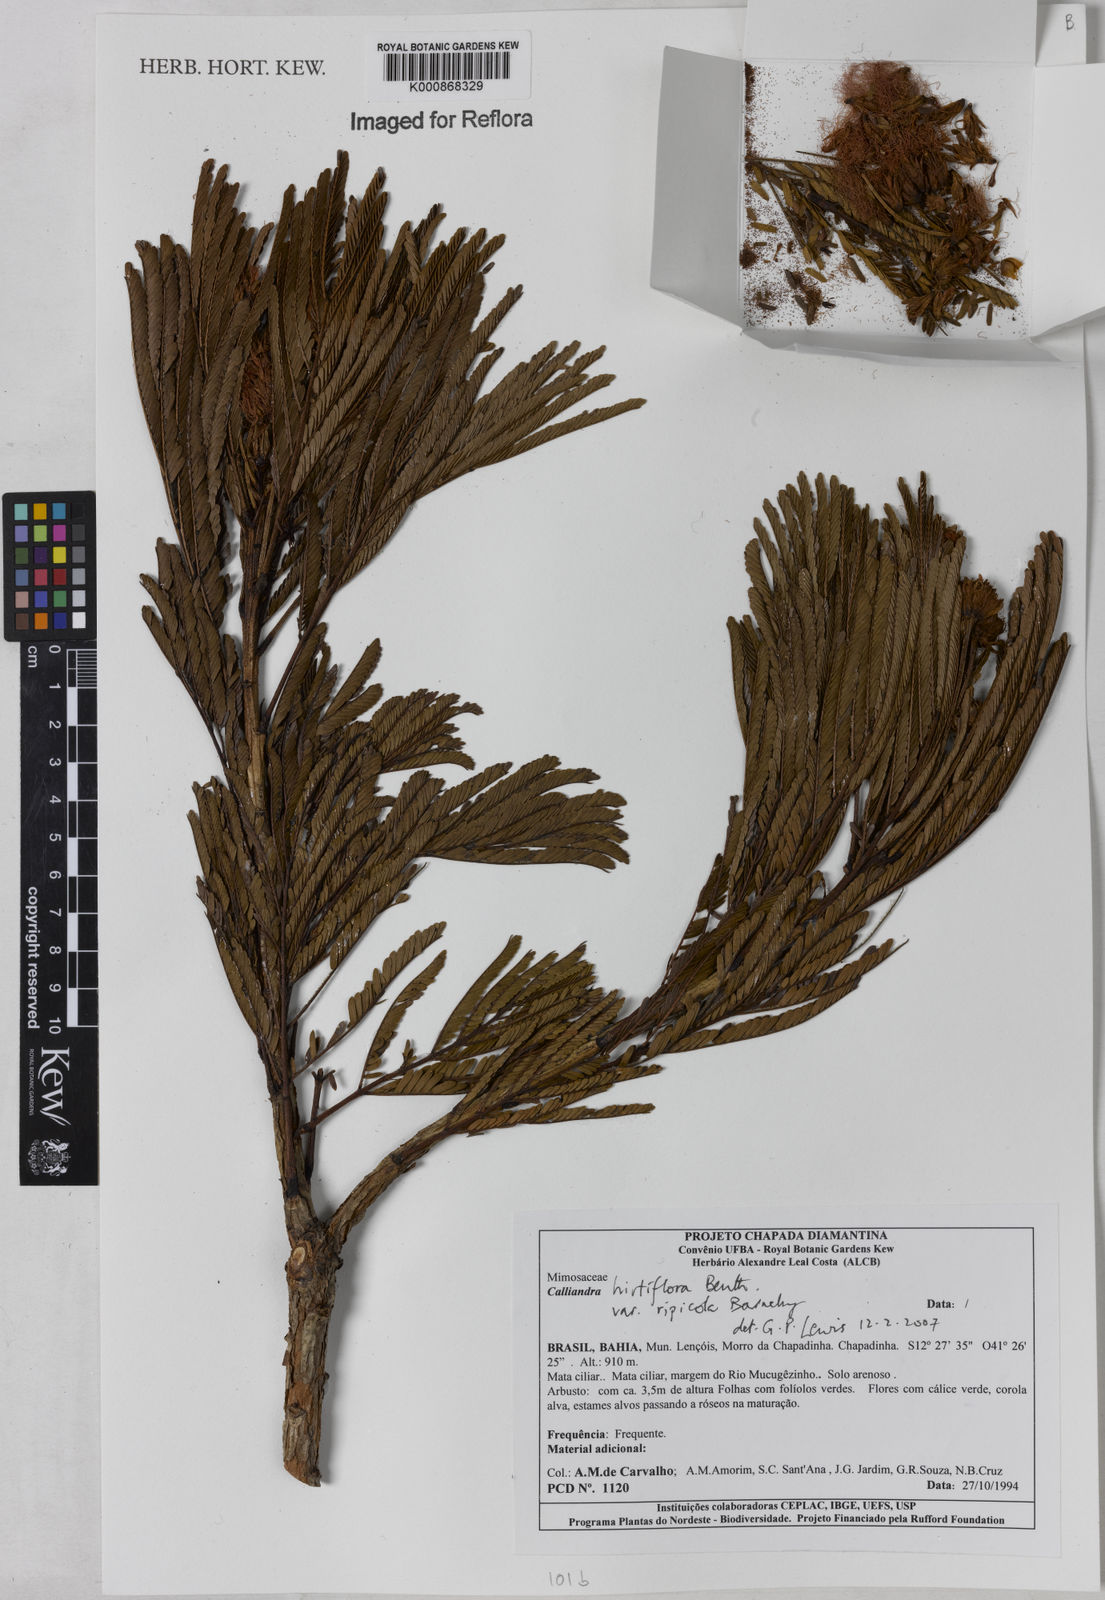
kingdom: Plantae
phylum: Tracheophyta
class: Magnoliopsida
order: Fabales
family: Fabaceae
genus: Calliandra
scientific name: Calliandra hirtiflora
